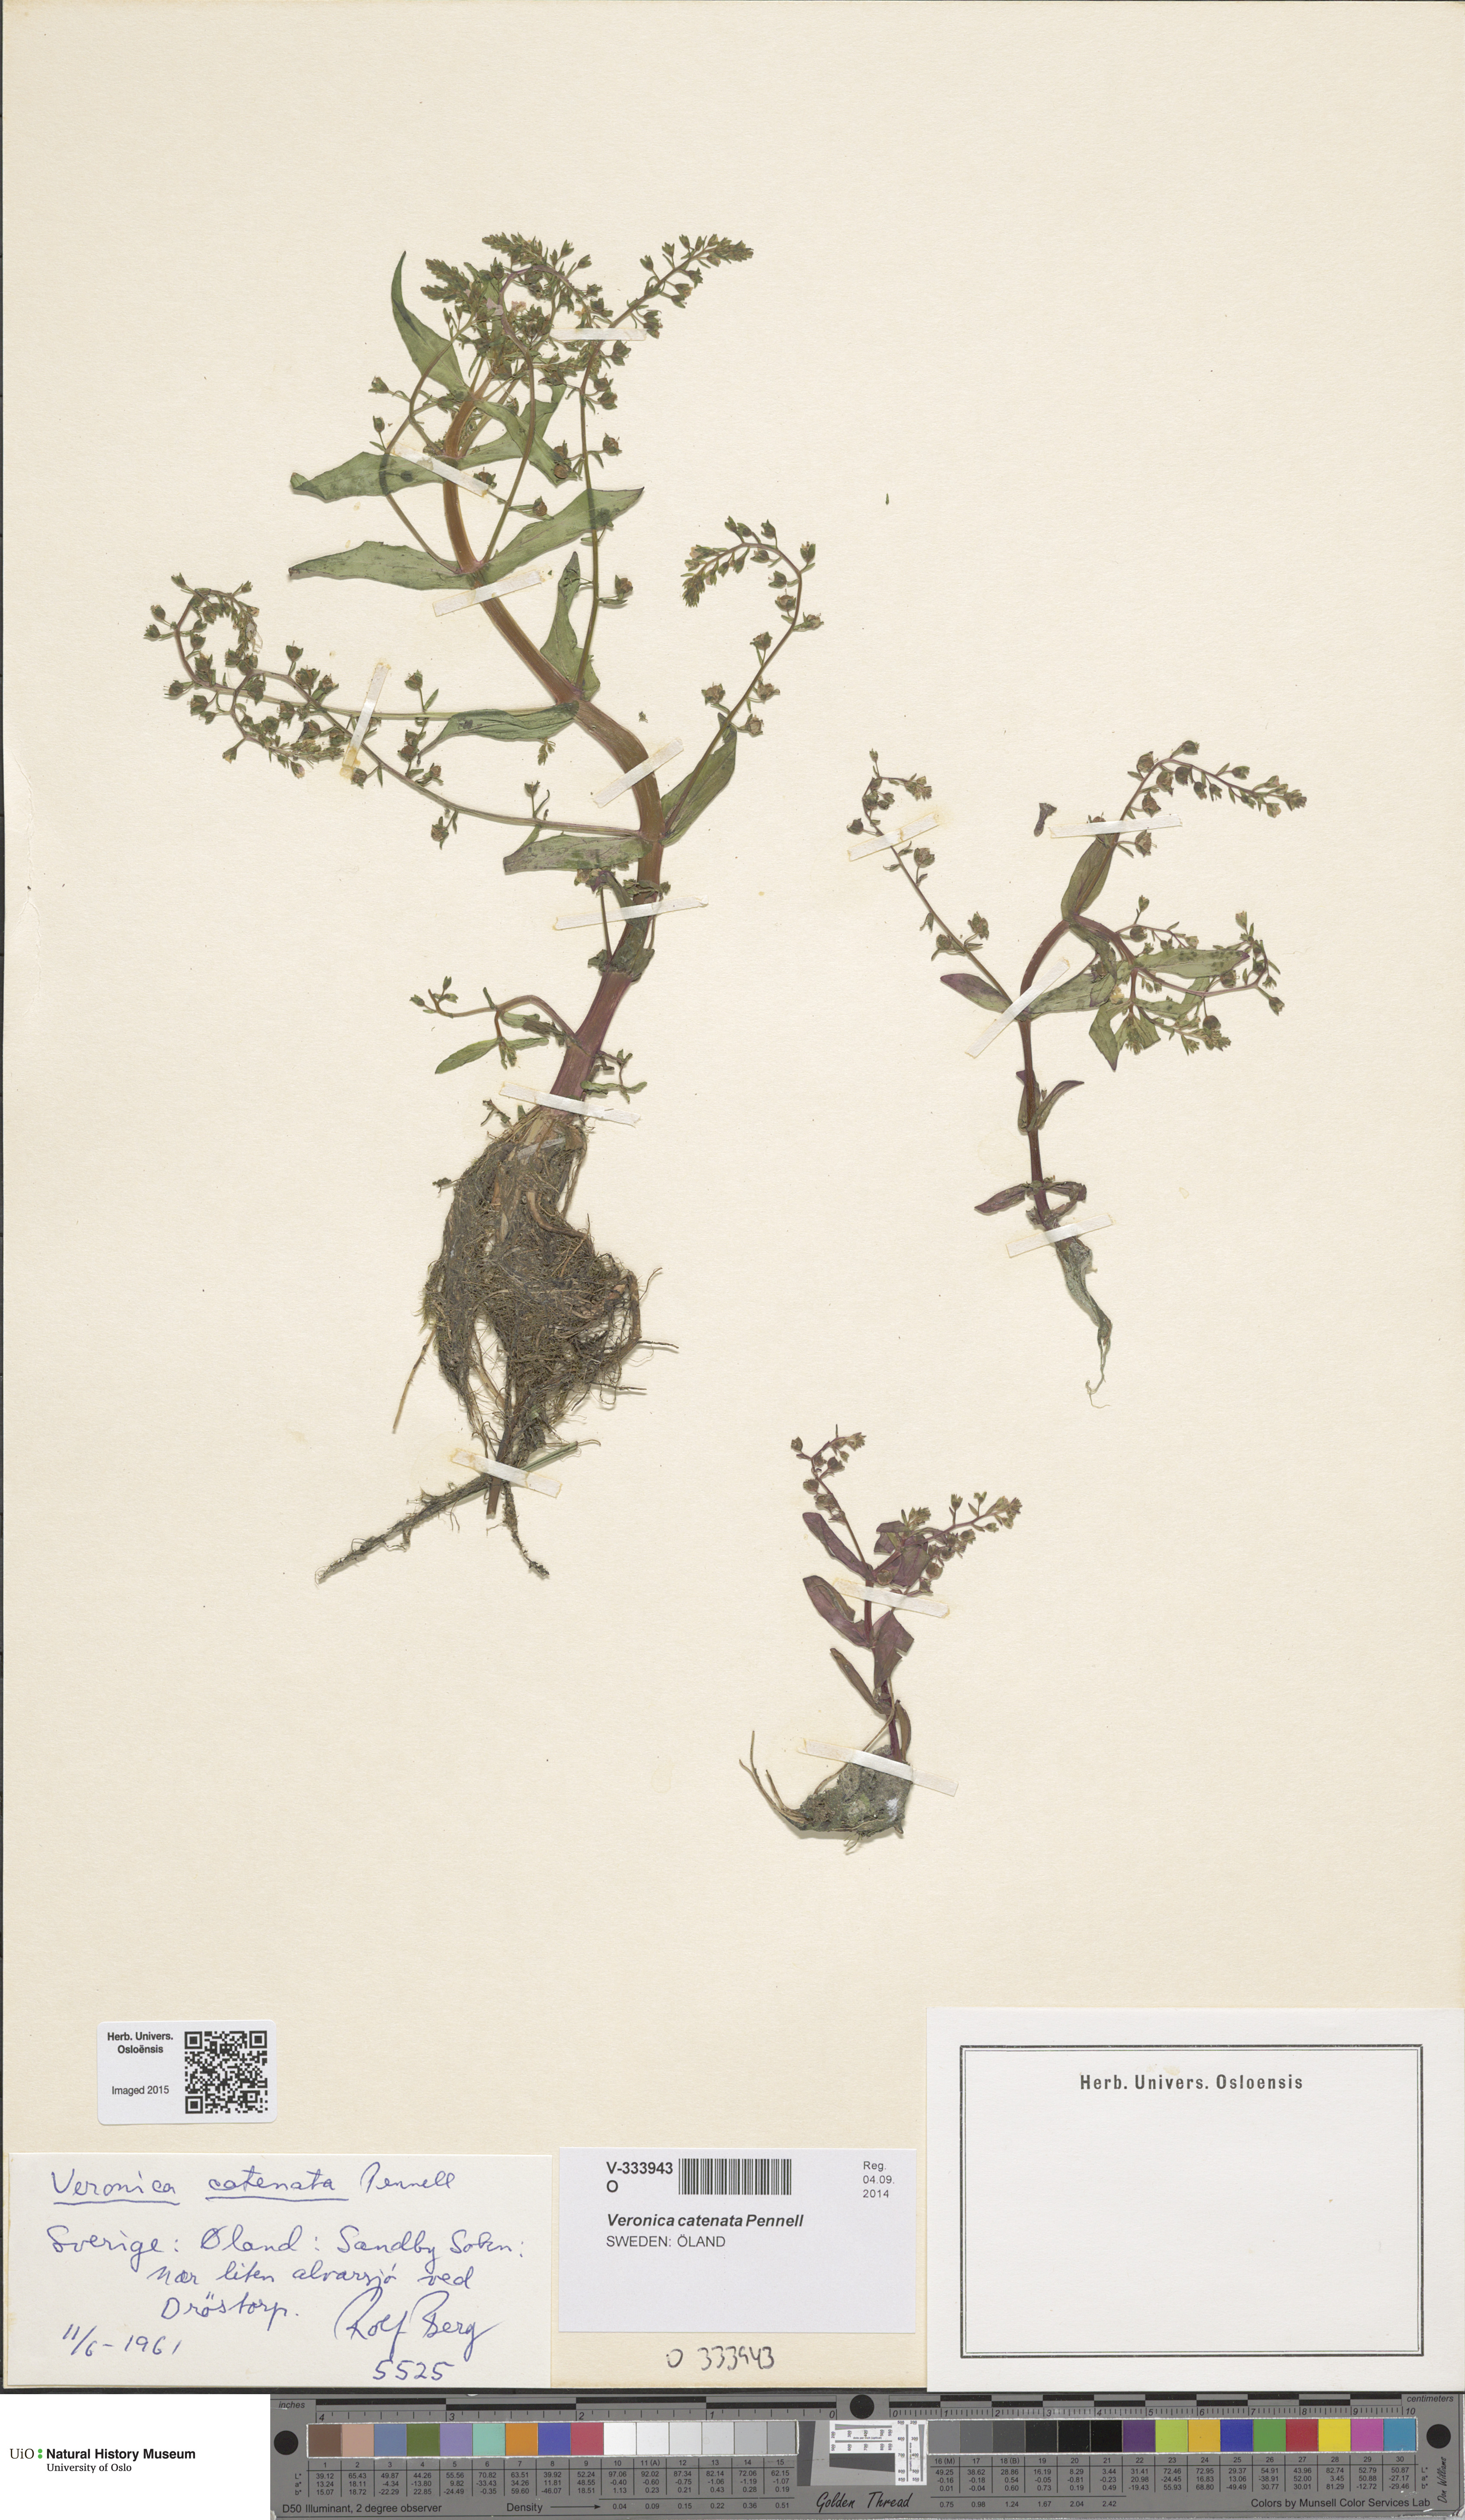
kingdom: Plantae
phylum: Tracheophyta
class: Magnoliopsida
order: Lamiales
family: Plantaginaceae
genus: Veronica
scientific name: Veronica catenata
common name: Pink water-speedwell
